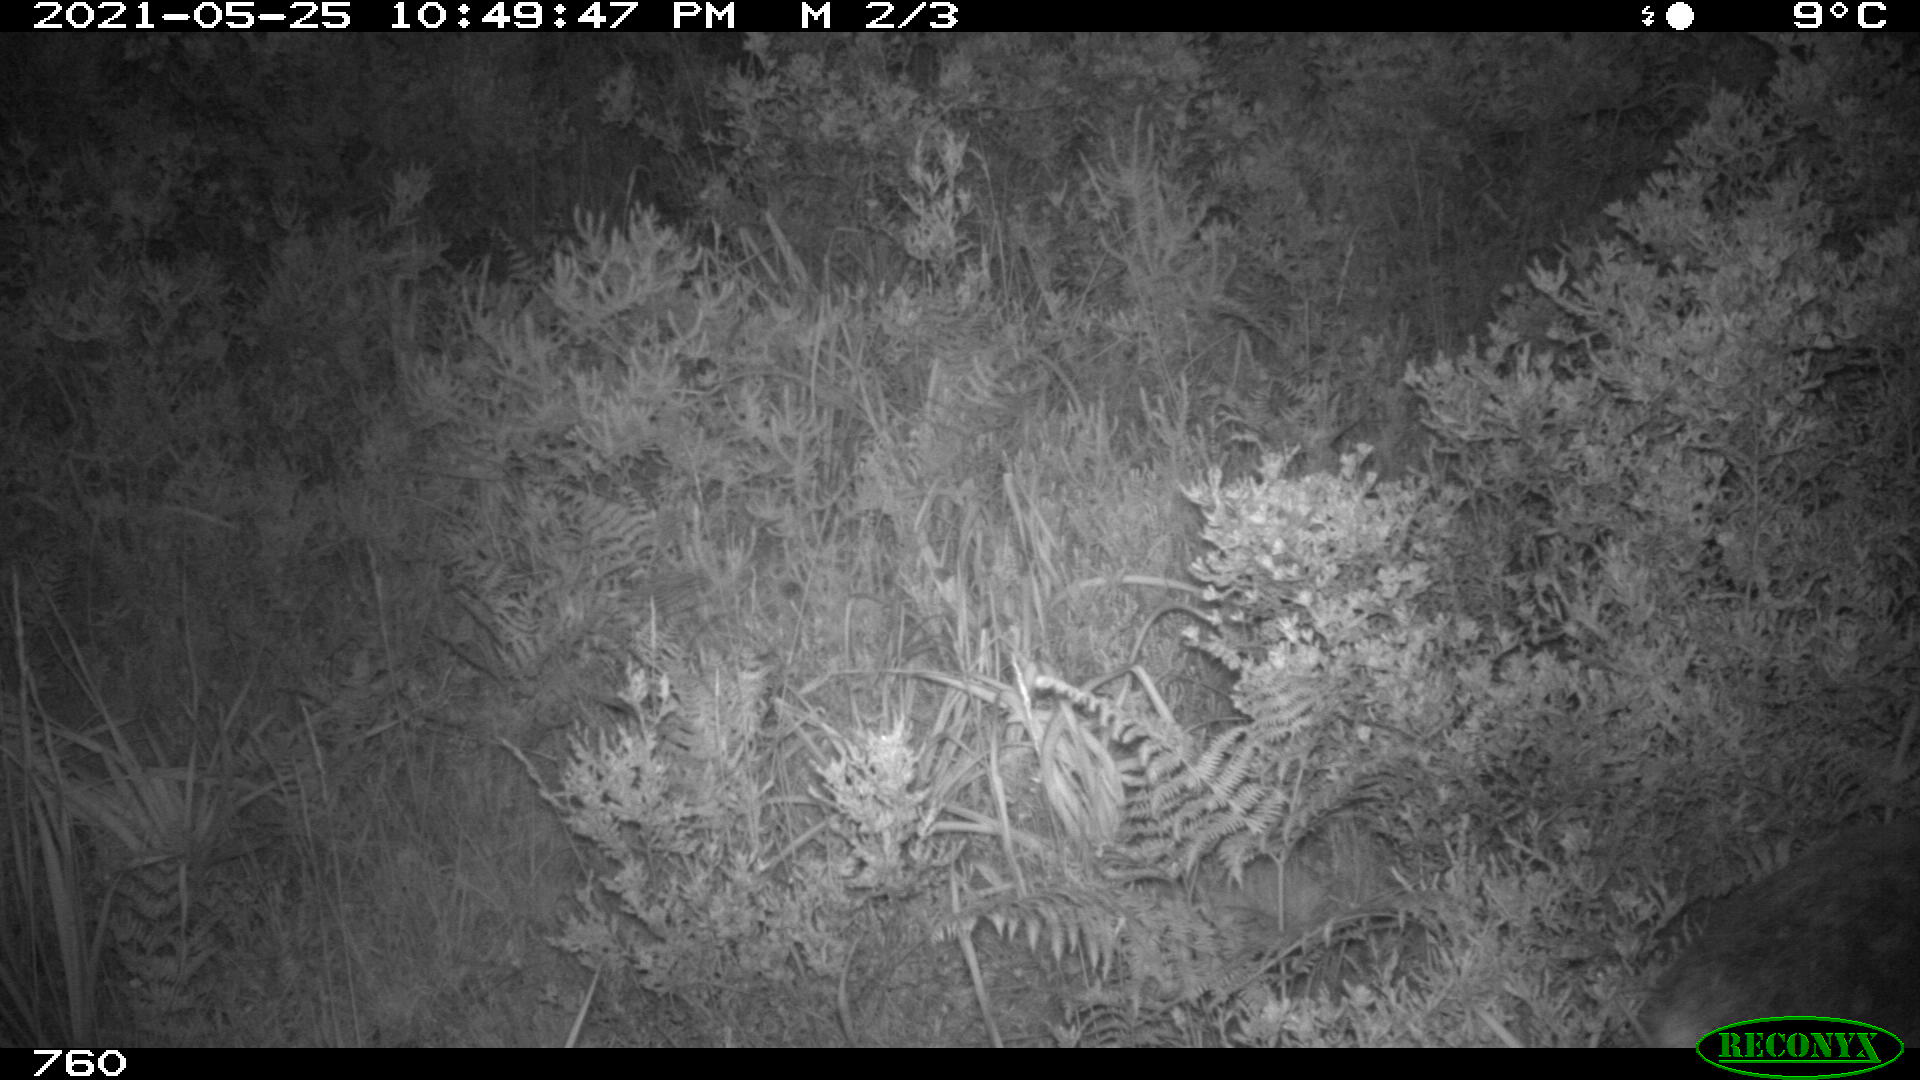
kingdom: Animalia
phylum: Chordata
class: Mammalia
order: Artiodactyla
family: Cervidae
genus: Capreolus
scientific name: Capreolus capreolus
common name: Western roe deer
